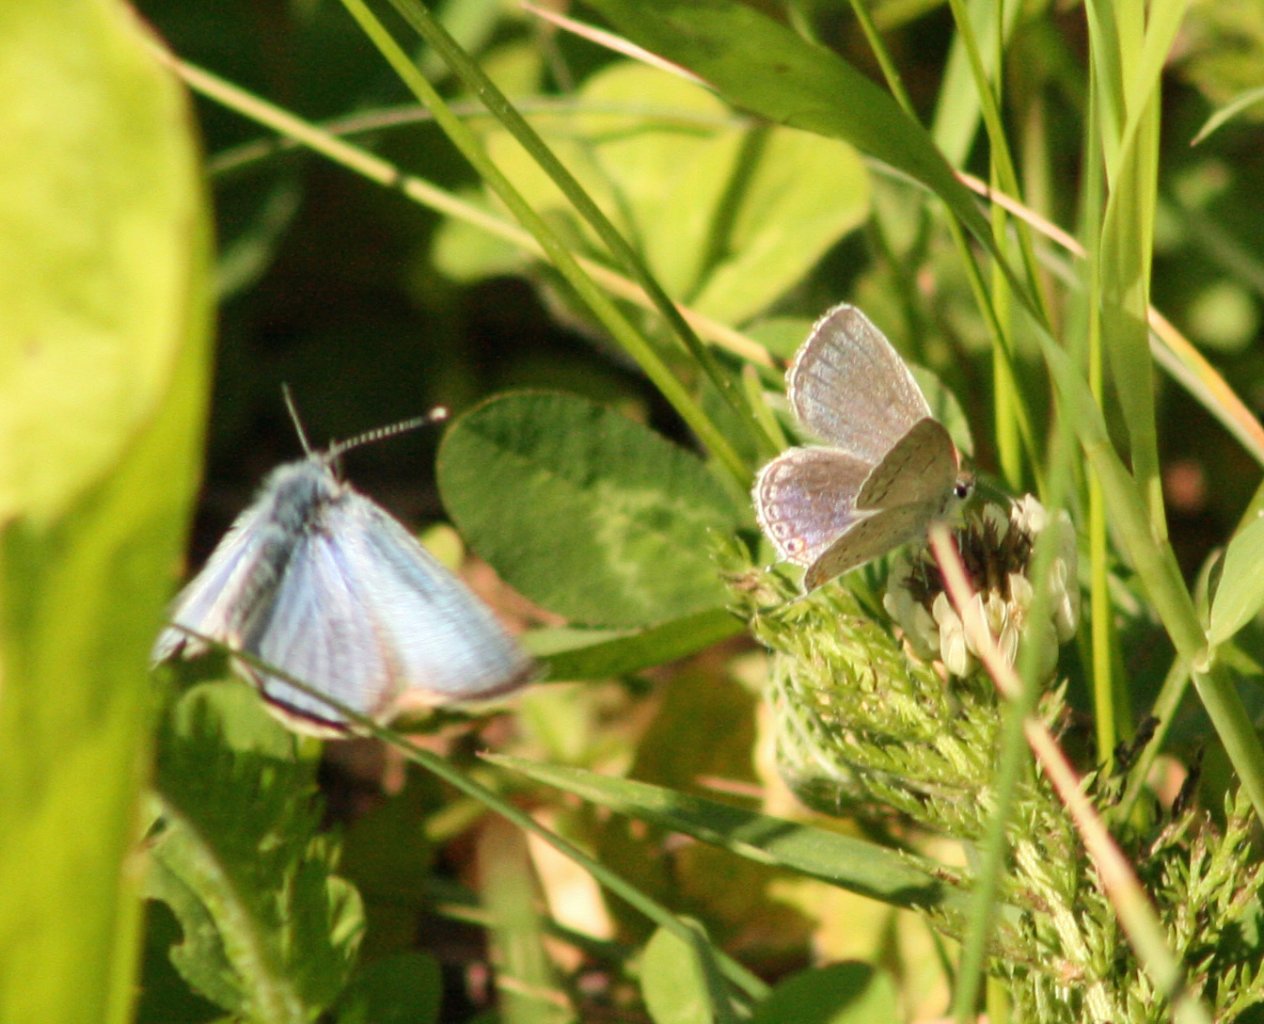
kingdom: Animalia
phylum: Arthropoda
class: Insecta
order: Lepidoptera
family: Lycaenidae
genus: Elkalyce
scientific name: Elkalyce comyntas
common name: Eastern Tailed-Blue
